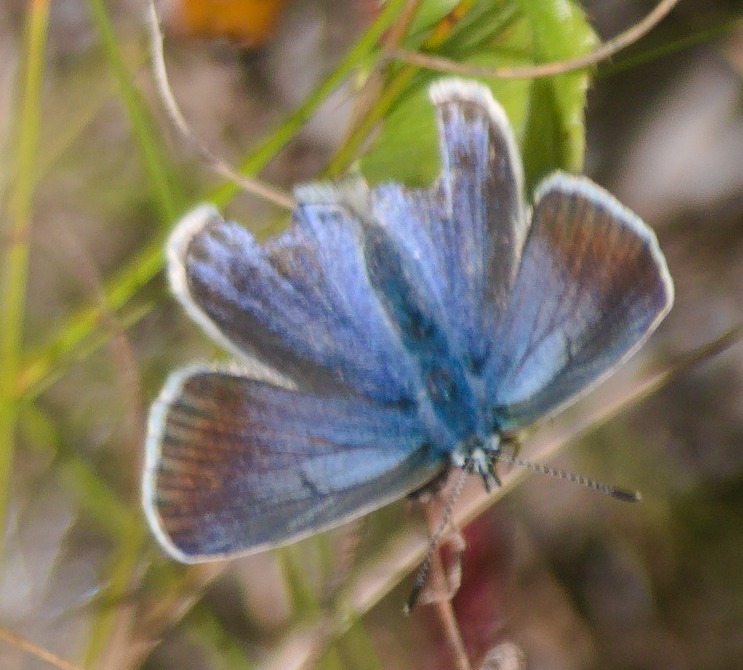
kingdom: Animalia
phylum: Arthropoda
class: Insecta
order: Lepidoptera
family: Lycaenidae
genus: Polyommatus
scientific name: Polyommatus icarus
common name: Almindelig blåfugl
